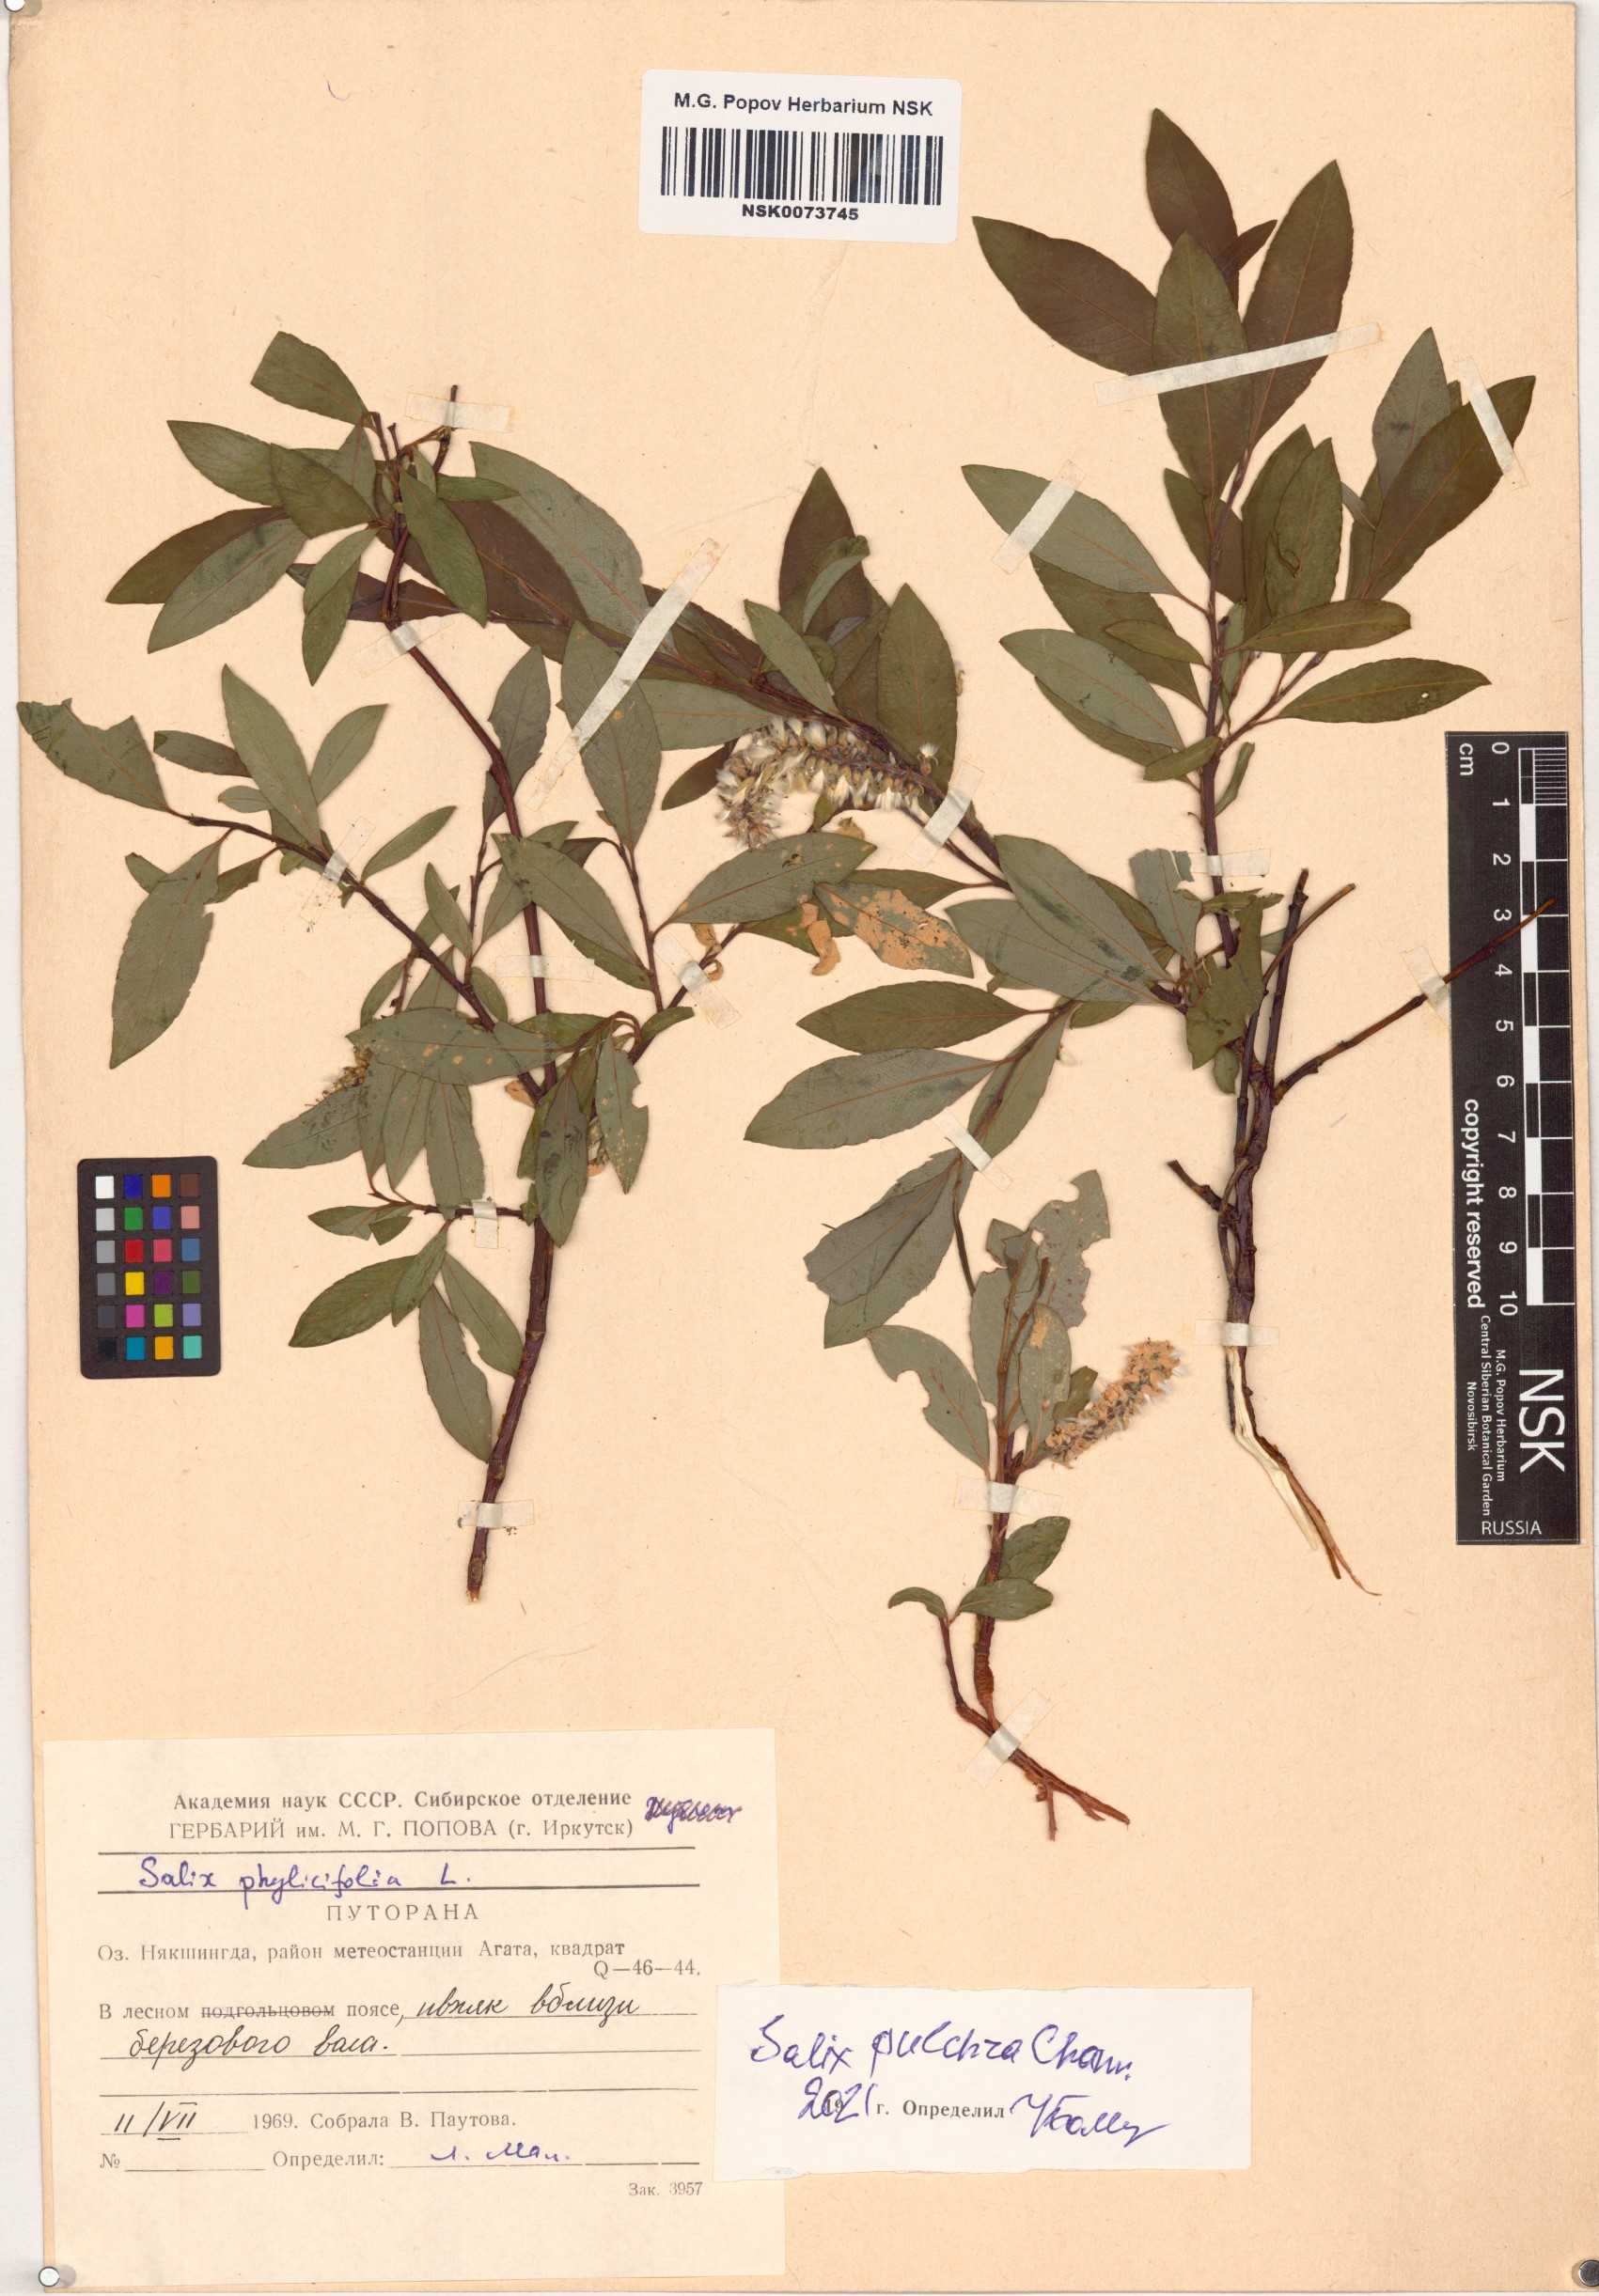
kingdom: Plantae
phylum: Tracheophyta
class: Magnoliopsida
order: Malpighiales
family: Salicaceae
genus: Salix
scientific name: Salix pulchra
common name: Diamond-leaved willow
